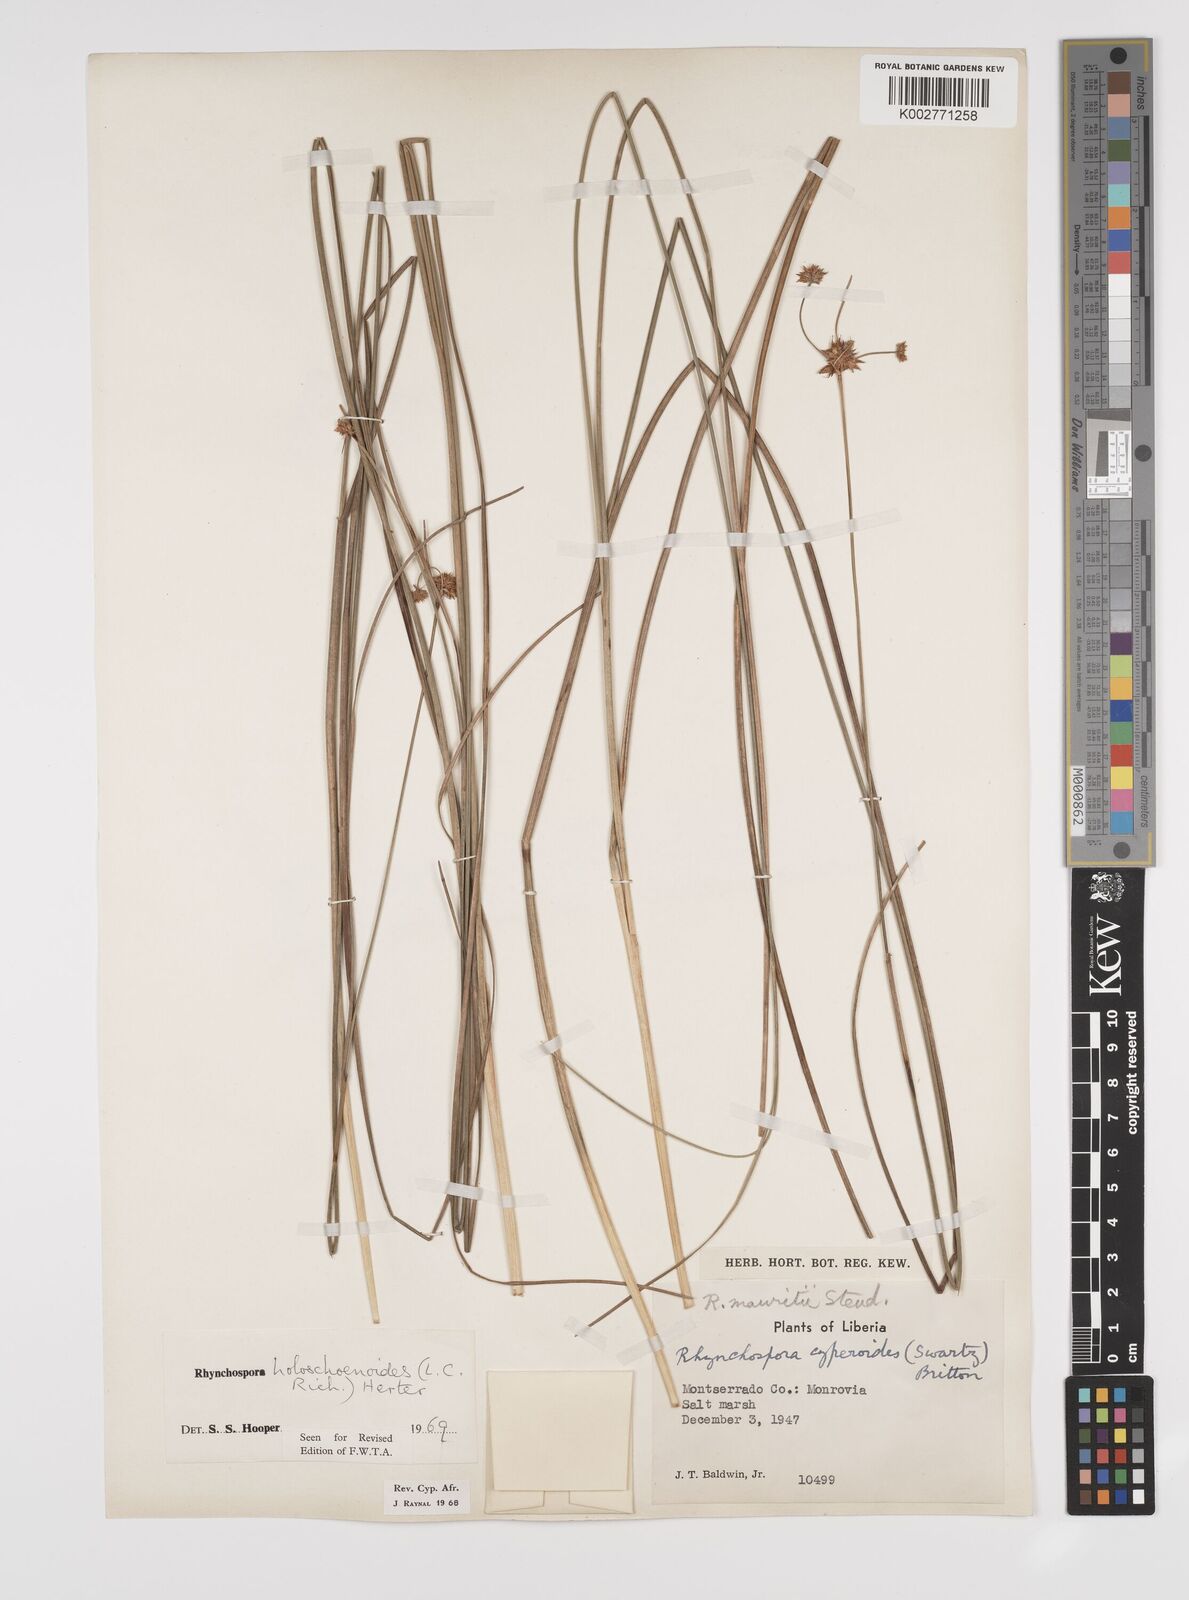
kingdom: Plantae
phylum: Tracheophyta
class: Liliopsida
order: Poales
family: Cyperaceae
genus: Rhynchospora
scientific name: Rhynchospora holoschoenoides
